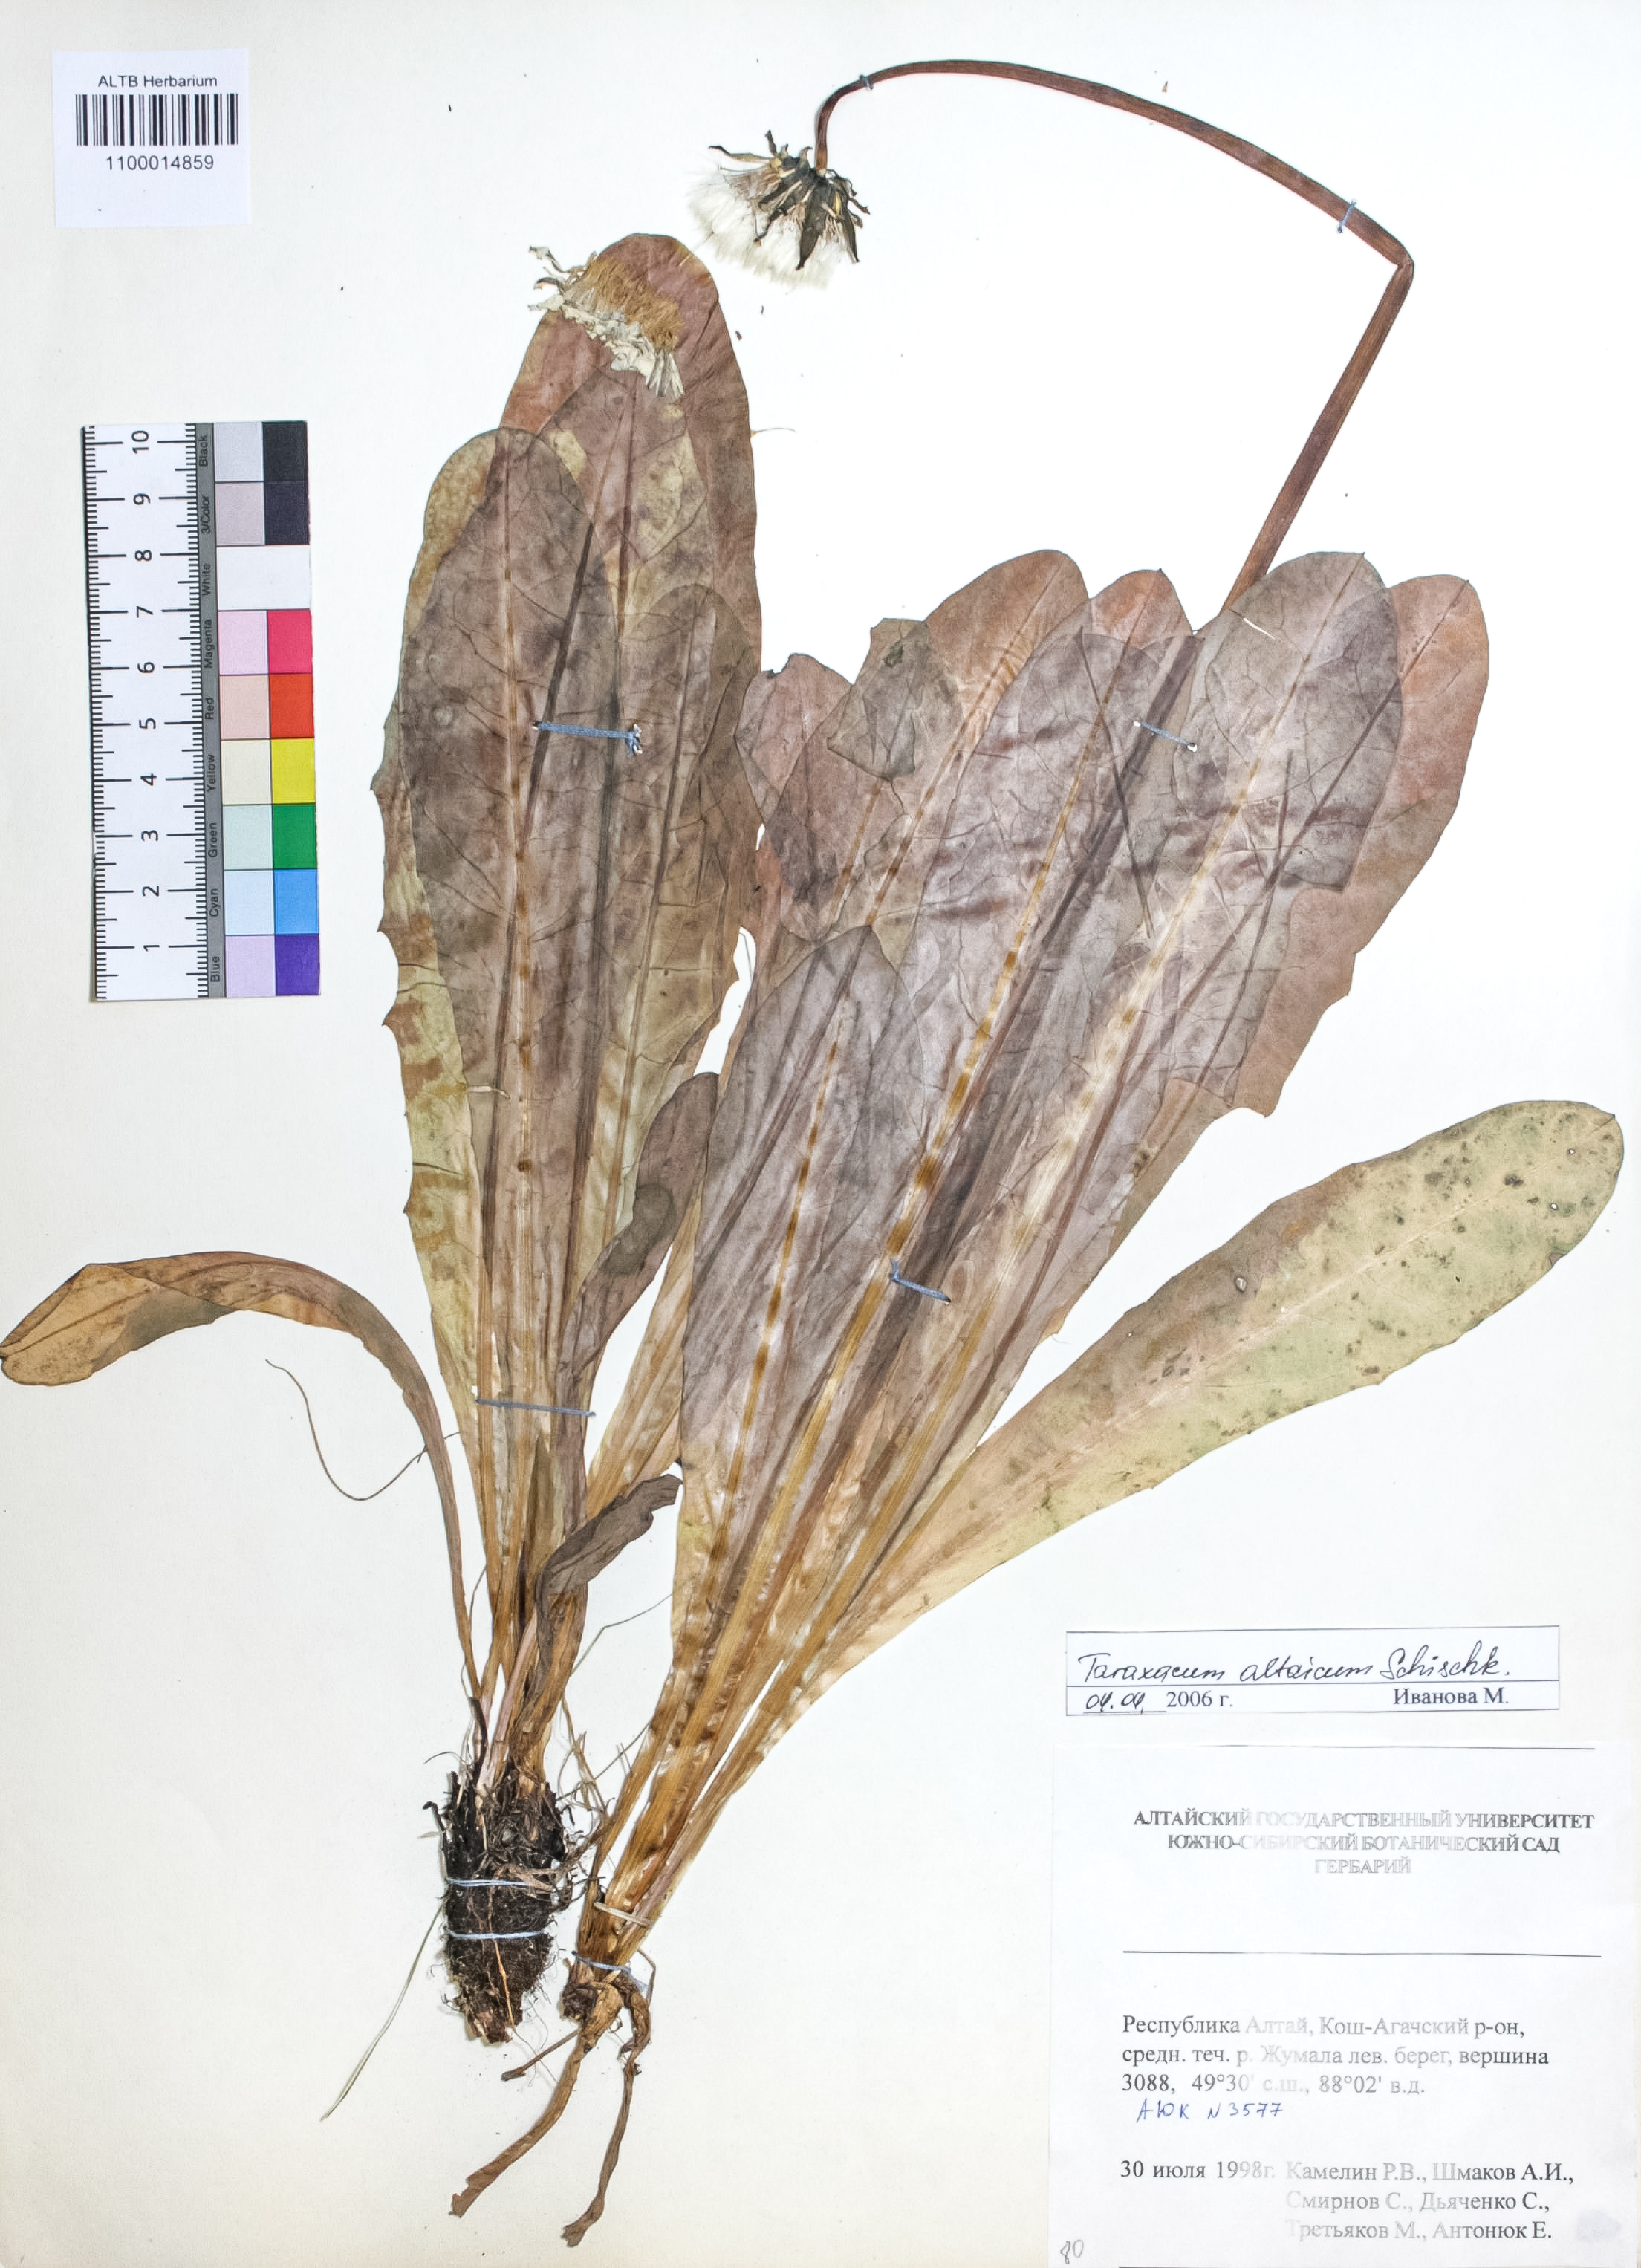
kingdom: Plantae
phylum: Tracheophyta
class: Magnoliopsida
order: Asterales
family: Asteraceae
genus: Taraxacum
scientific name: Taraxacum ceratophorum
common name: Horn-bearing dandelion
